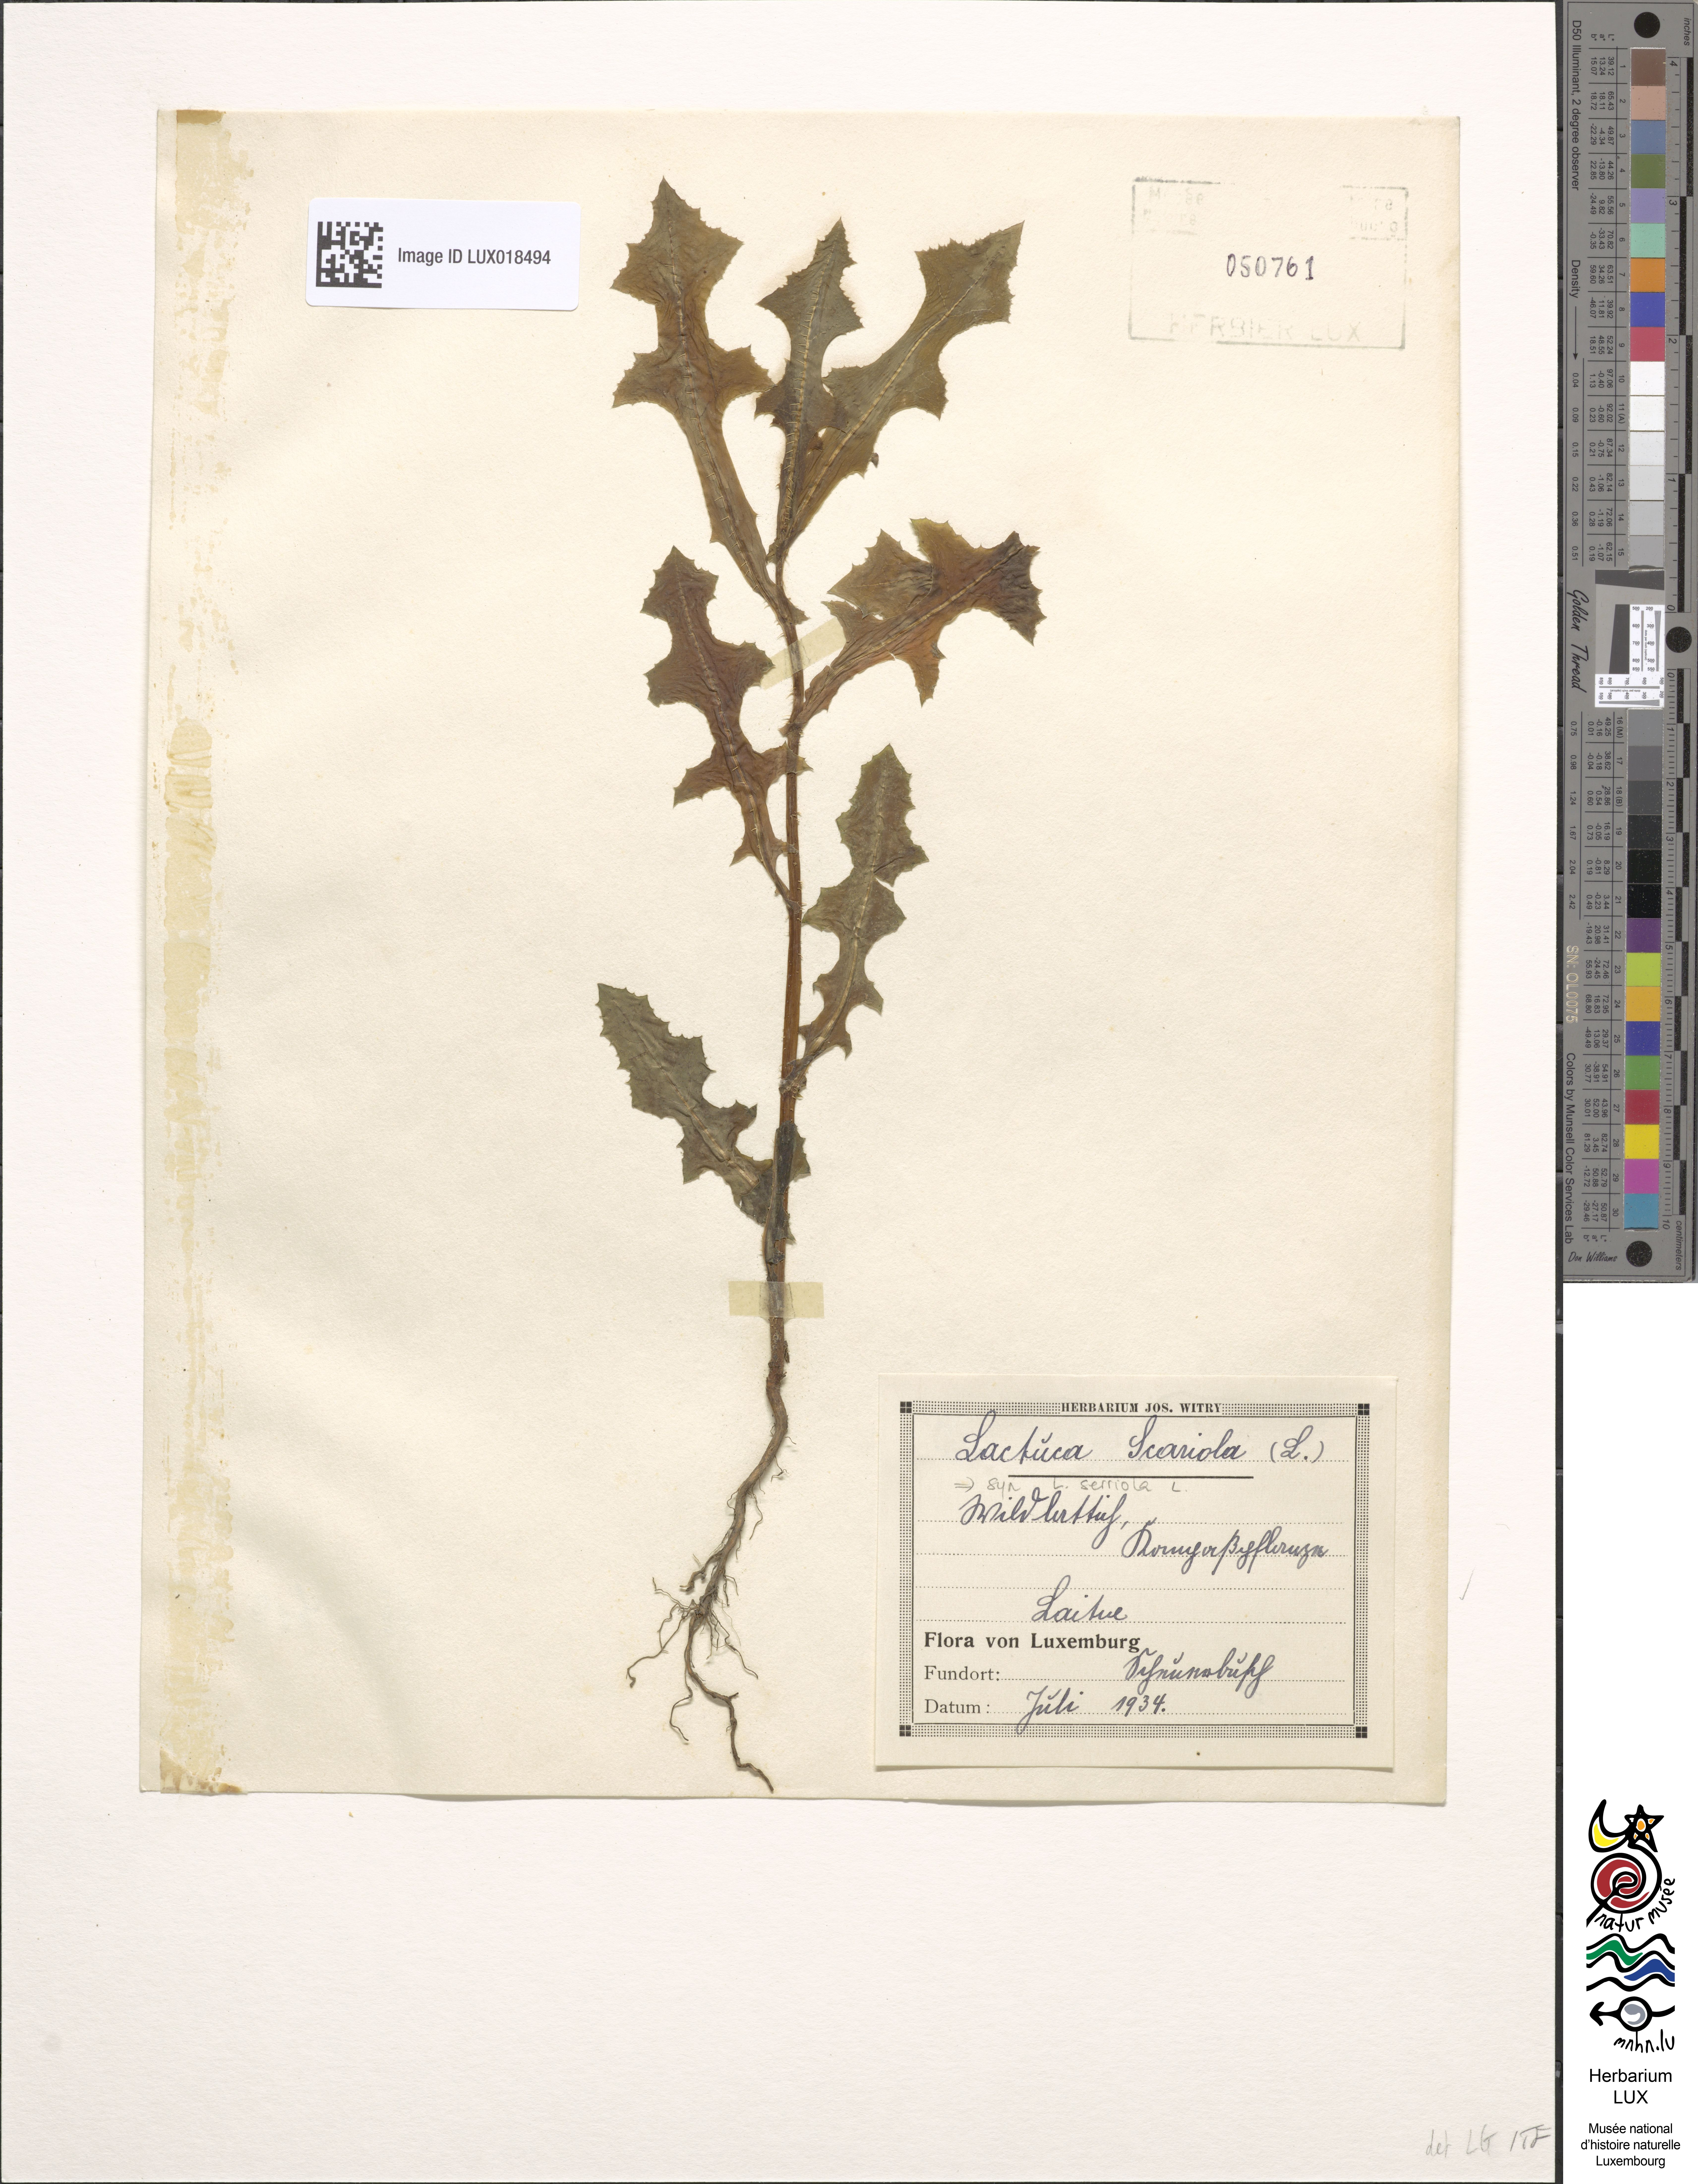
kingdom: Plantae
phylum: Tracheophyta
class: Magnoliopsida
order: Asterales
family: Asteraceae
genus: Lactuca
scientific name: Lactuca serriola
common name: Prickly lettuce
